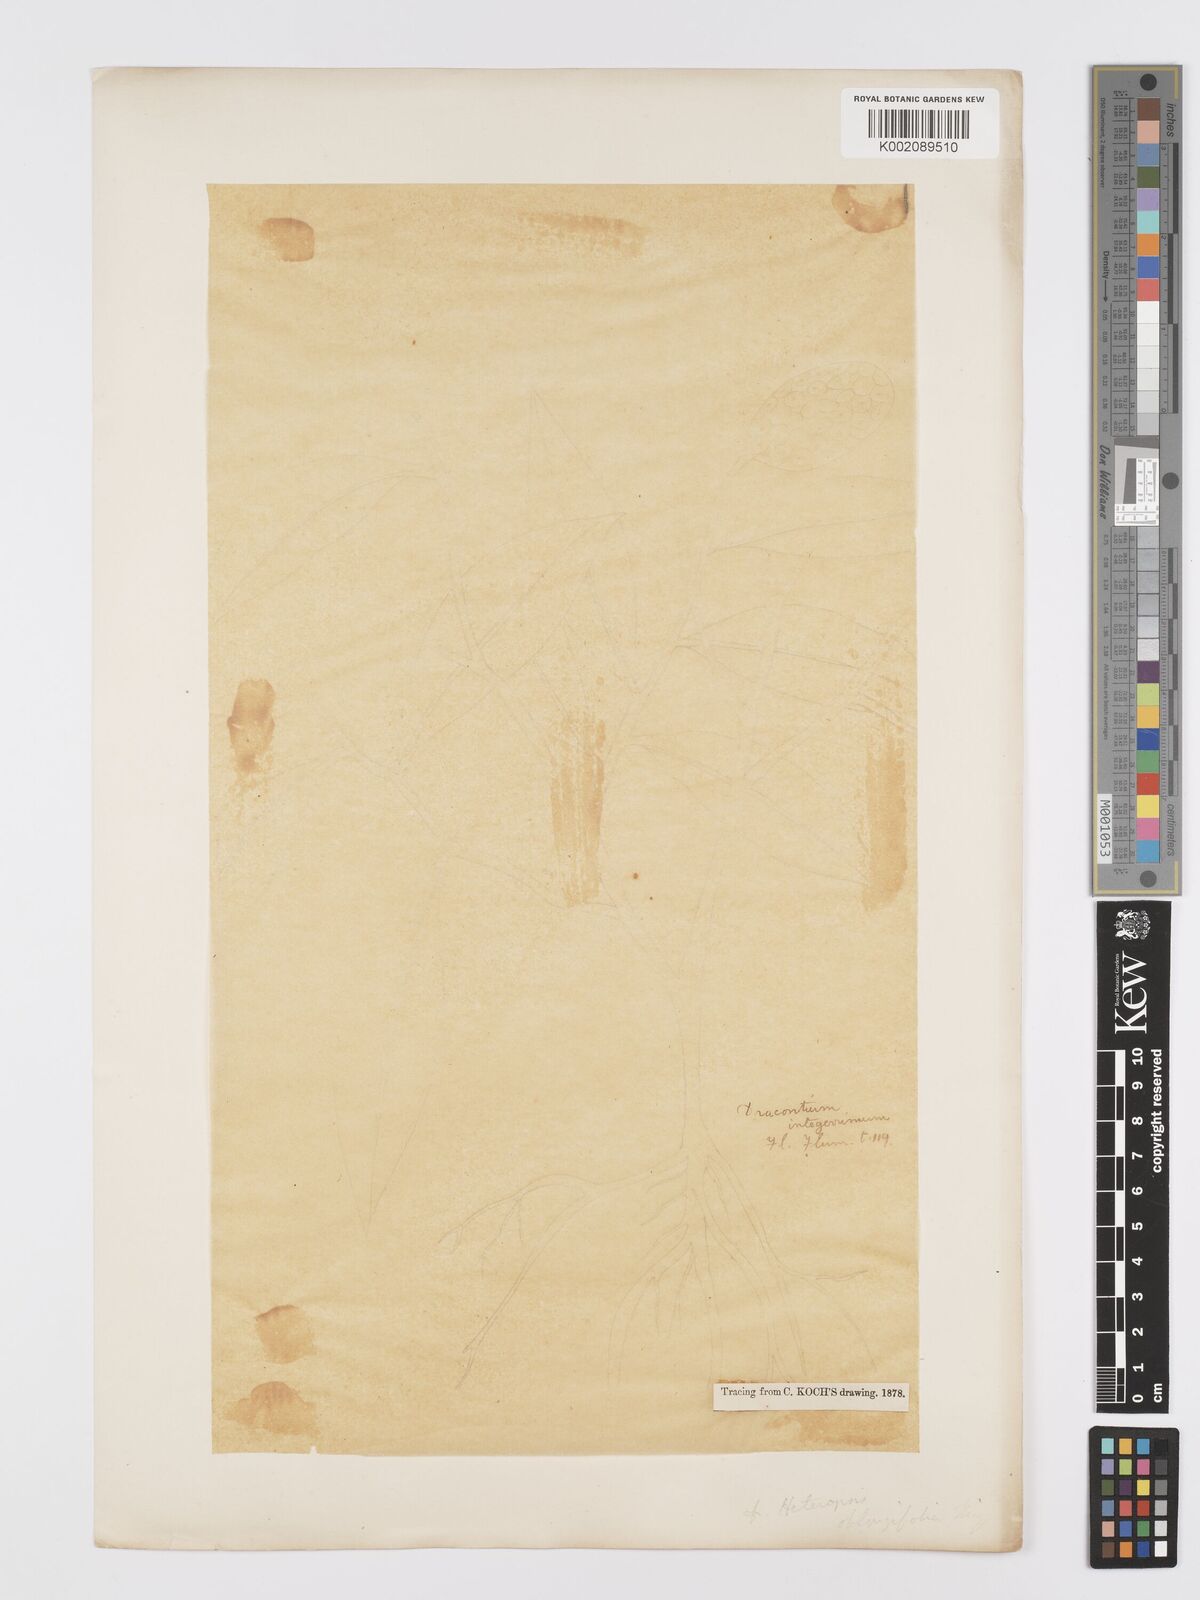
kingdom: Plantae
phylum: Tracheophyta
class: Liliopsida
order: Alismatales
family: Araceae
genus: Heteropsis
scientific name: Heteropsis oblongifolia
